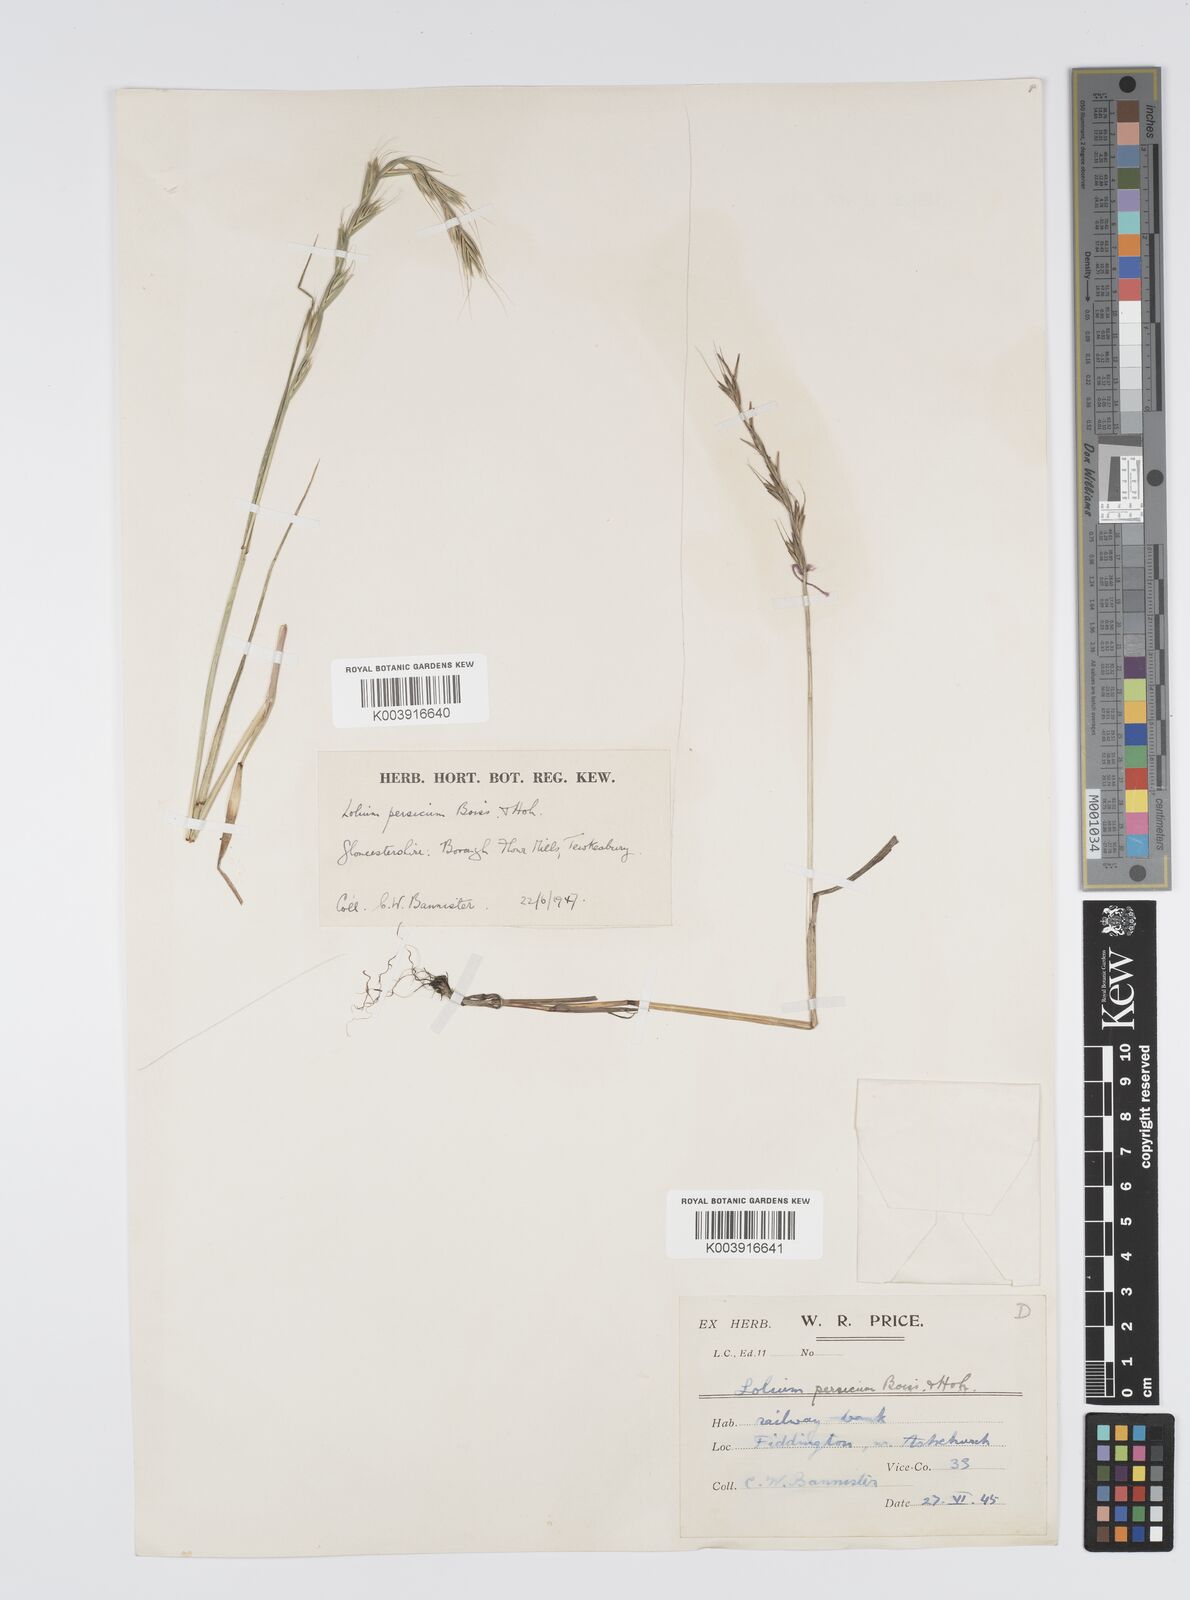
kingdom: Plantae
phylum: Tracheophyta
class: Liliopsida
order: Poales
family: Poaceae
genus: Lolium
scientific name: Lolium persicum
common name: Persian ryegrass
